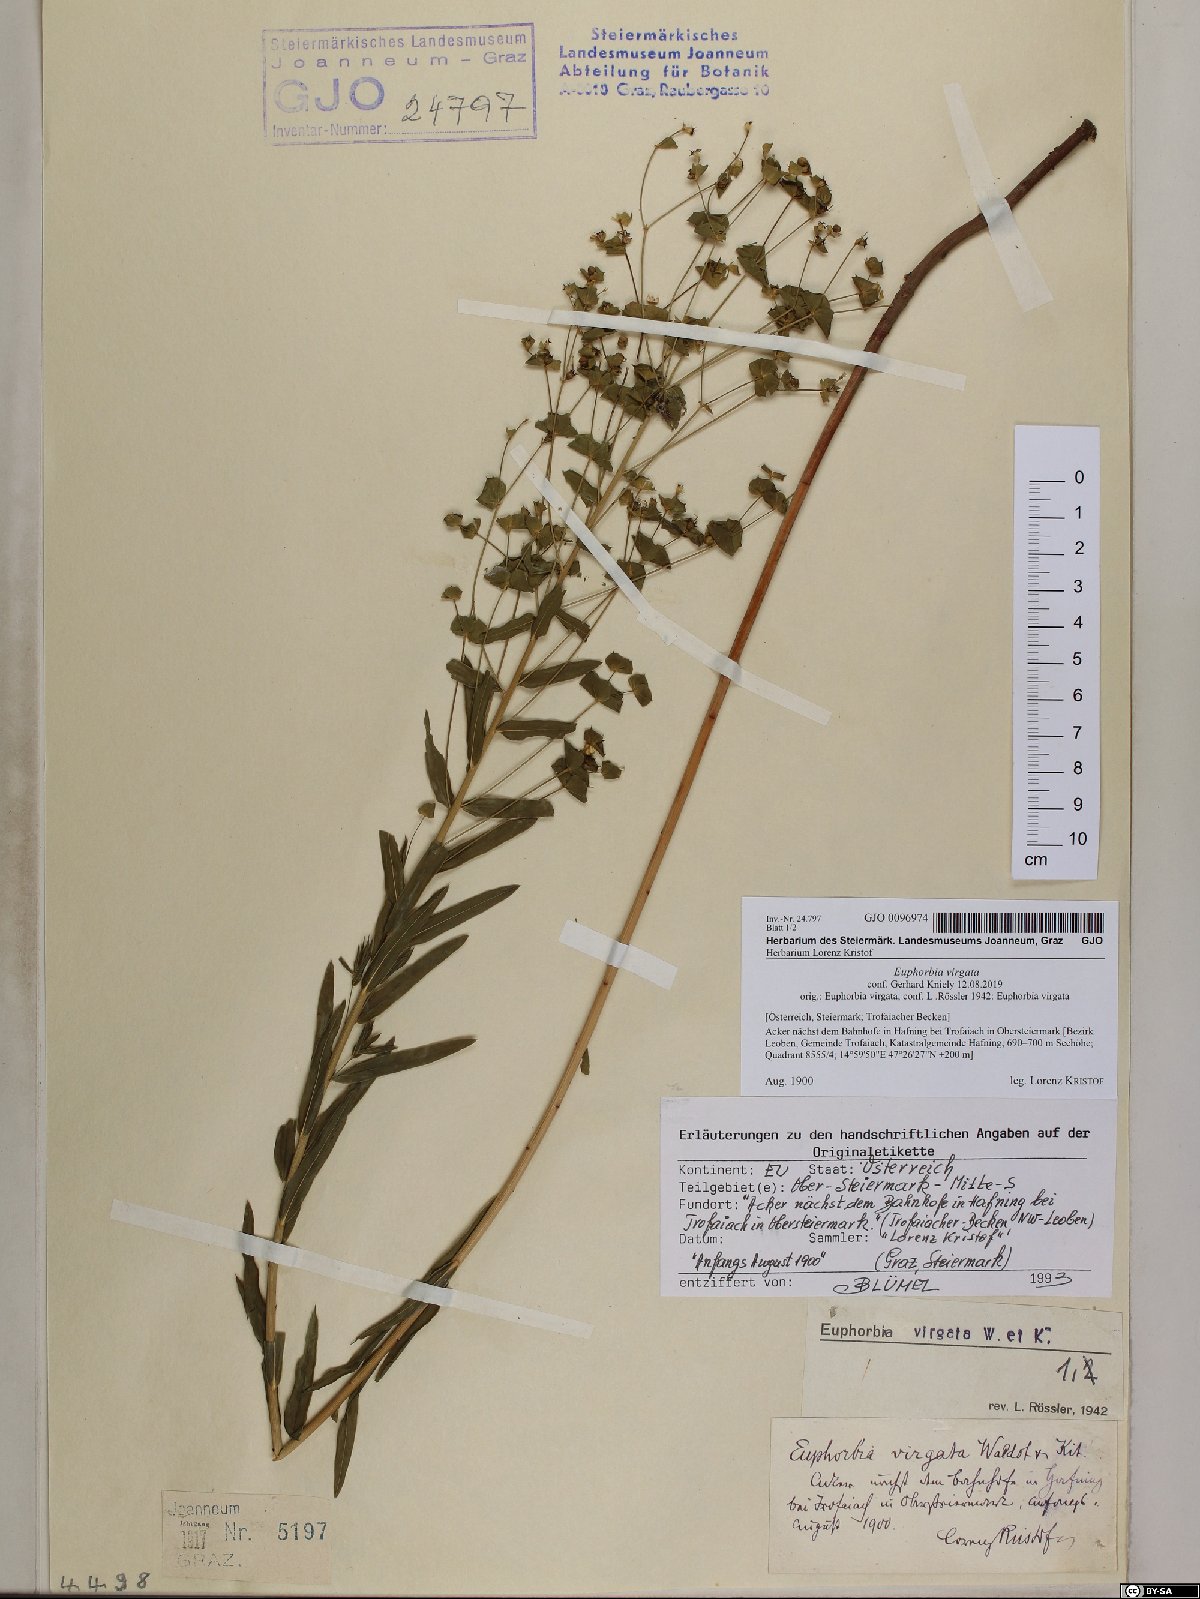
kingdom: Plantae
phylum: Tracheophyta
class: Magnoliopsida
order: Malpighiales
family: Euphorbiaceae
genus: Euphorbia
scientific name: Euphorbia virgata
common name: Leafy spurge
